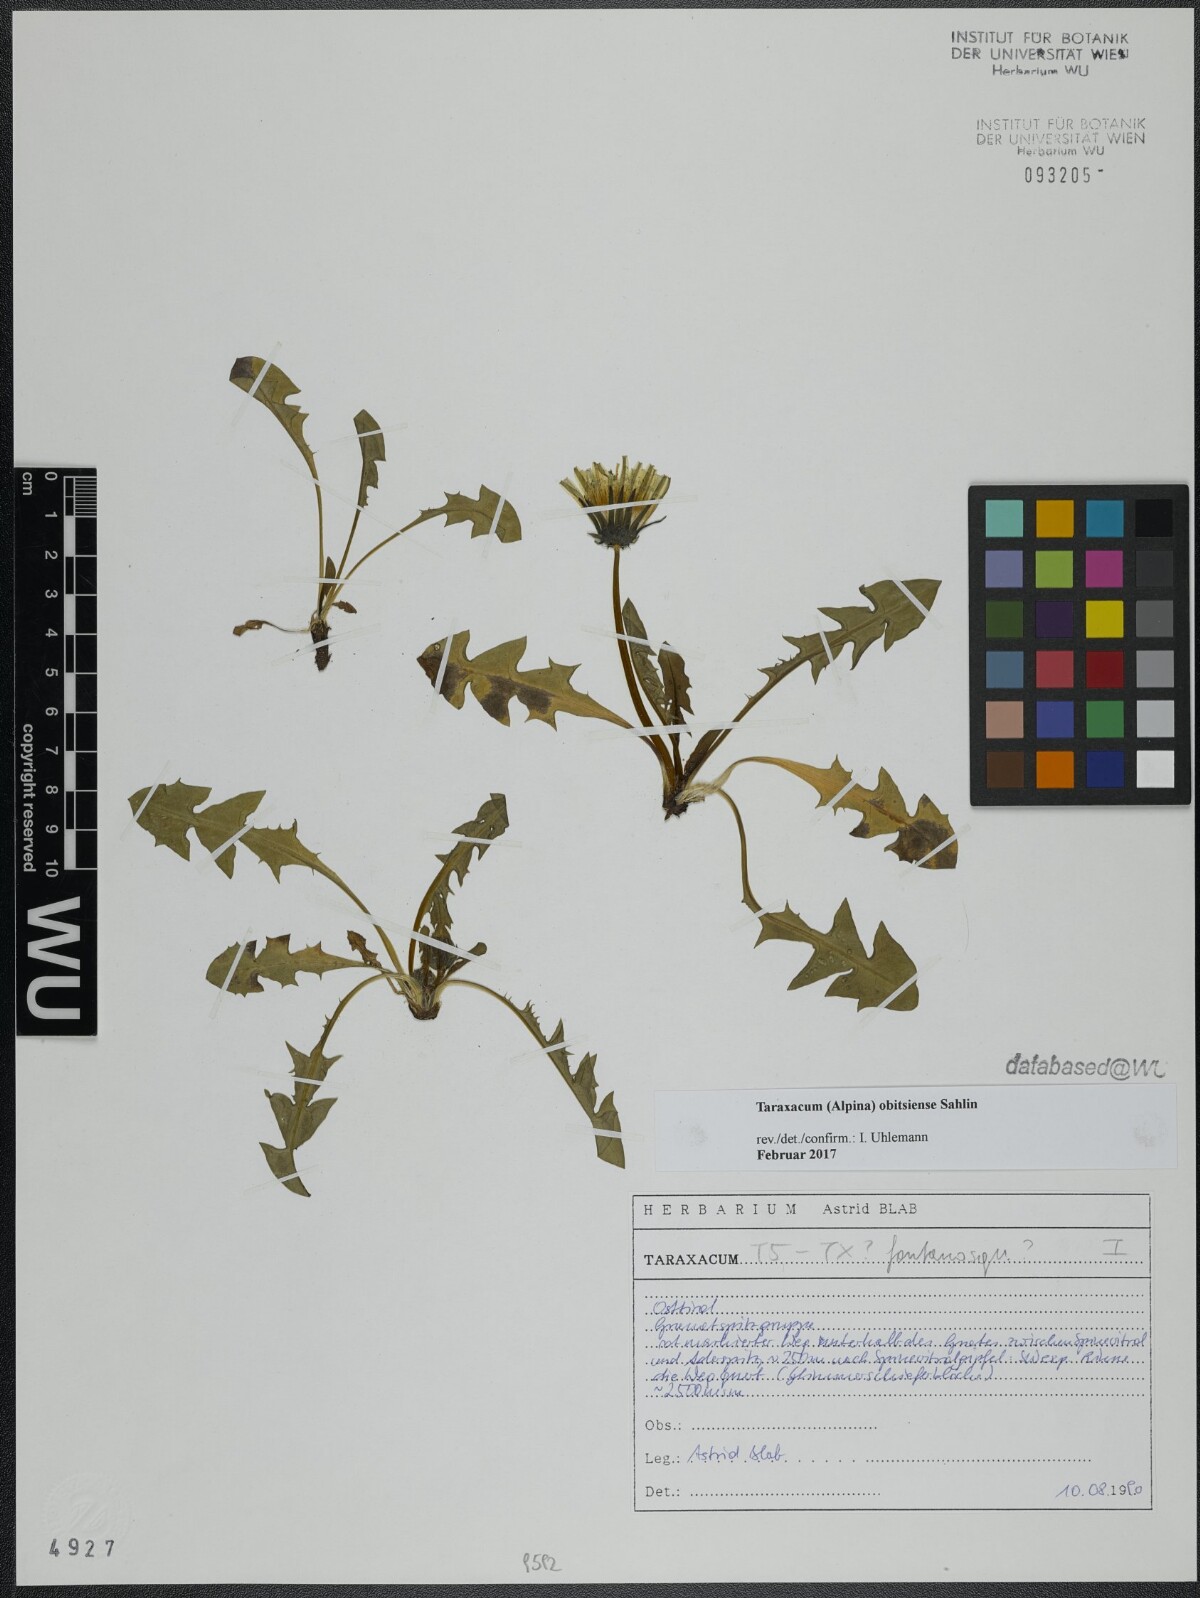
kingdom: Plantae
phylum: Tracheophyta
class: Magnoliopsida
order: Asterales
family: Asteraceae
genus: Taraxacum
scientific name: Taraxacum obitsiense
